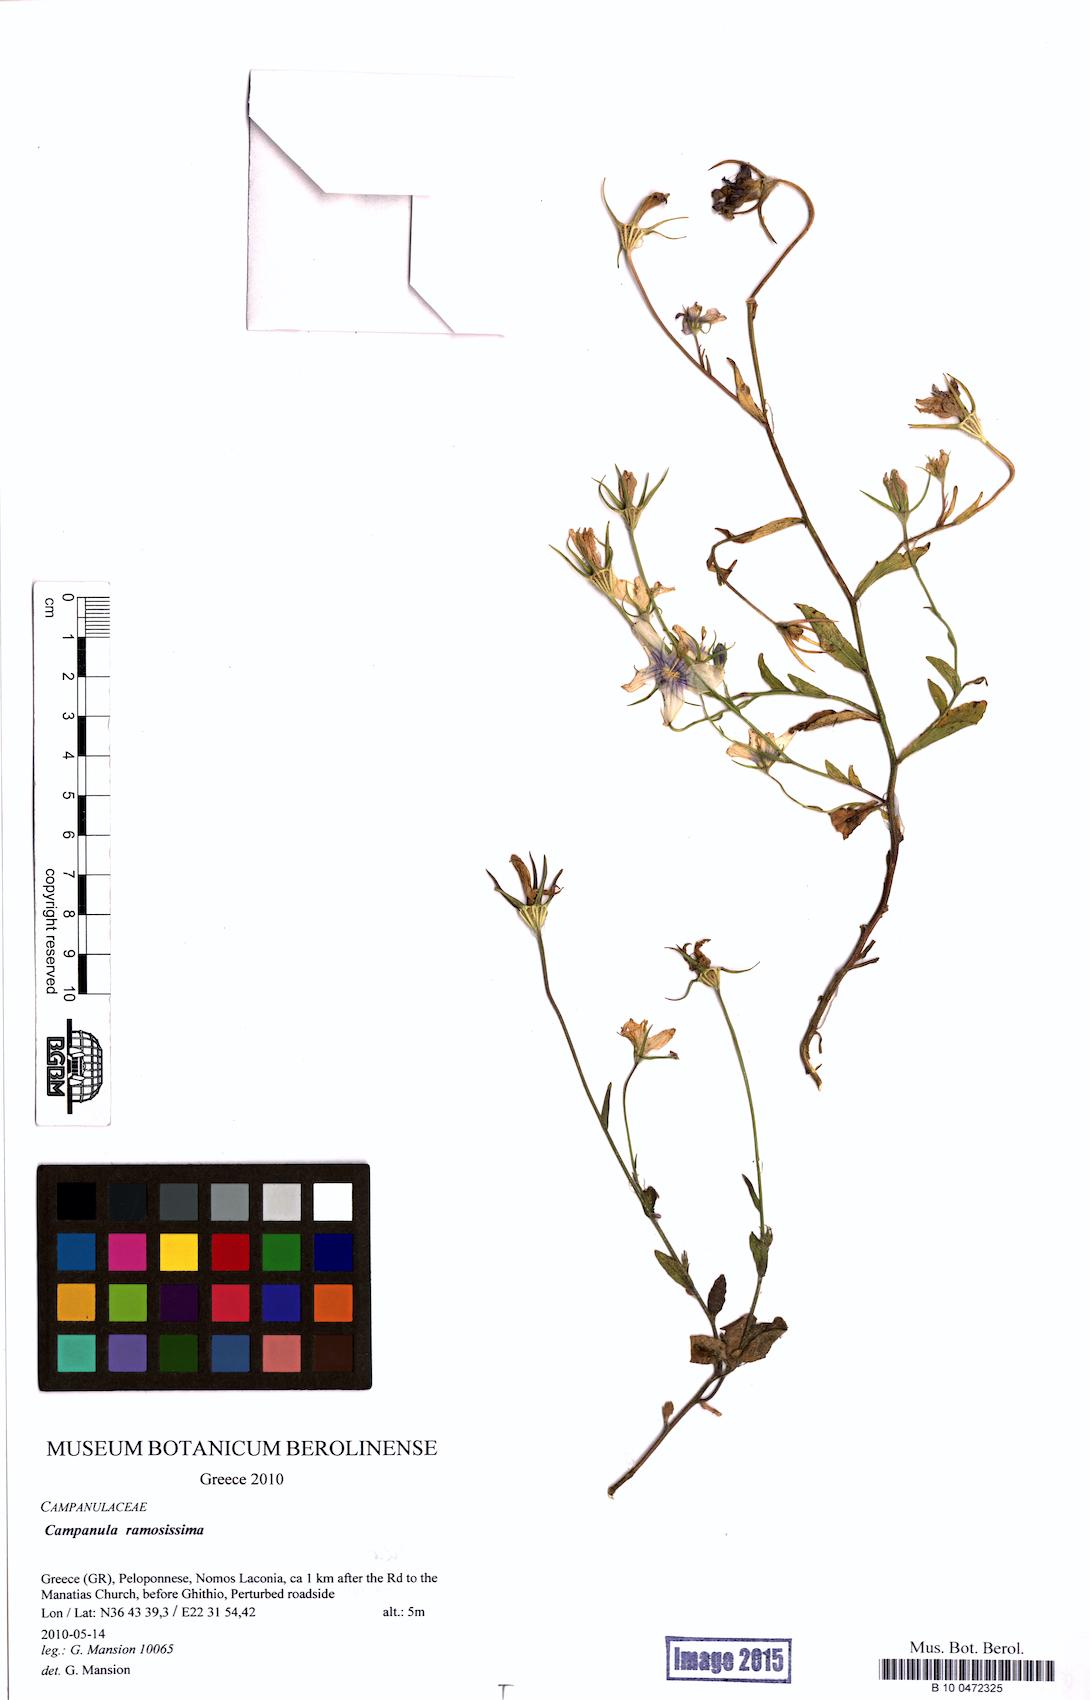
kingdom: Plantae
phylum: Tracheophyta
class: Magnoliopsida
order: Asterales
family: Campanulaceae
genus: Campanula
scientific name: Campanula ramosissima
